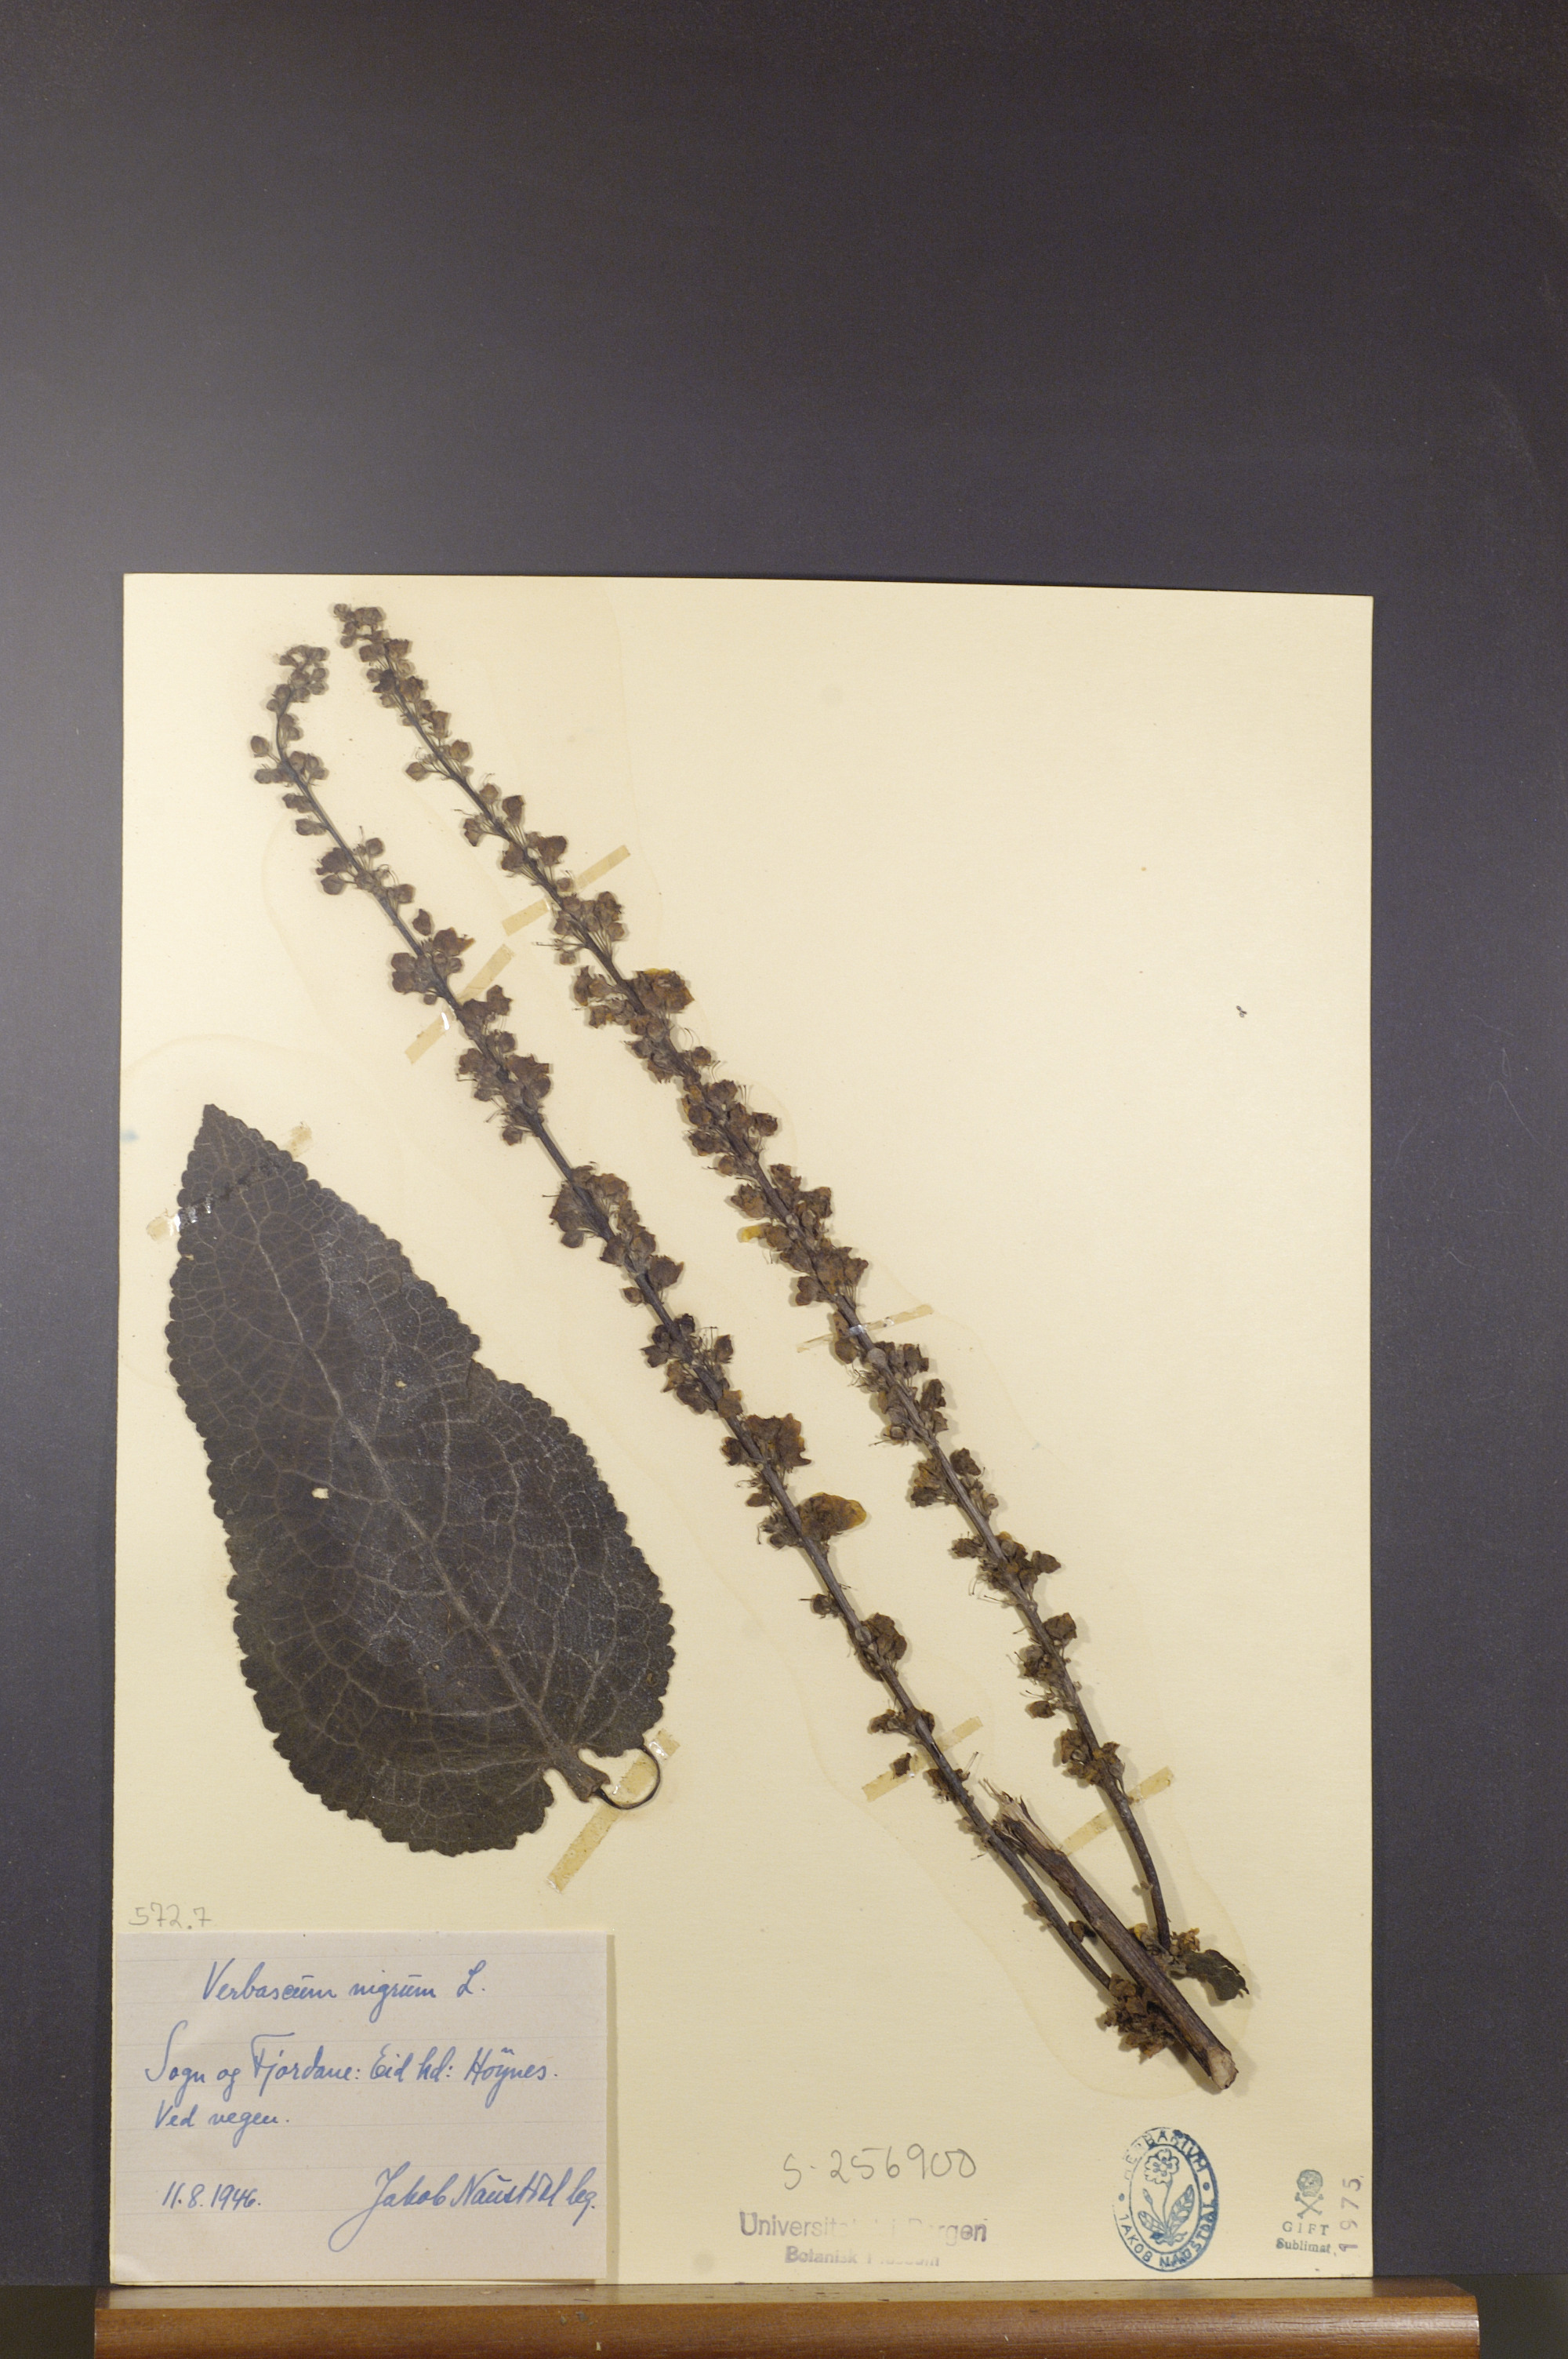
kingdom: Plantae
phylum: Tracheophyta
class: Magnoliopsida
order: Lamiales
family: Scrophulariaceae
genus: Verbascum
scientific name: Verbascum nigrum
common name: Dark mullein
